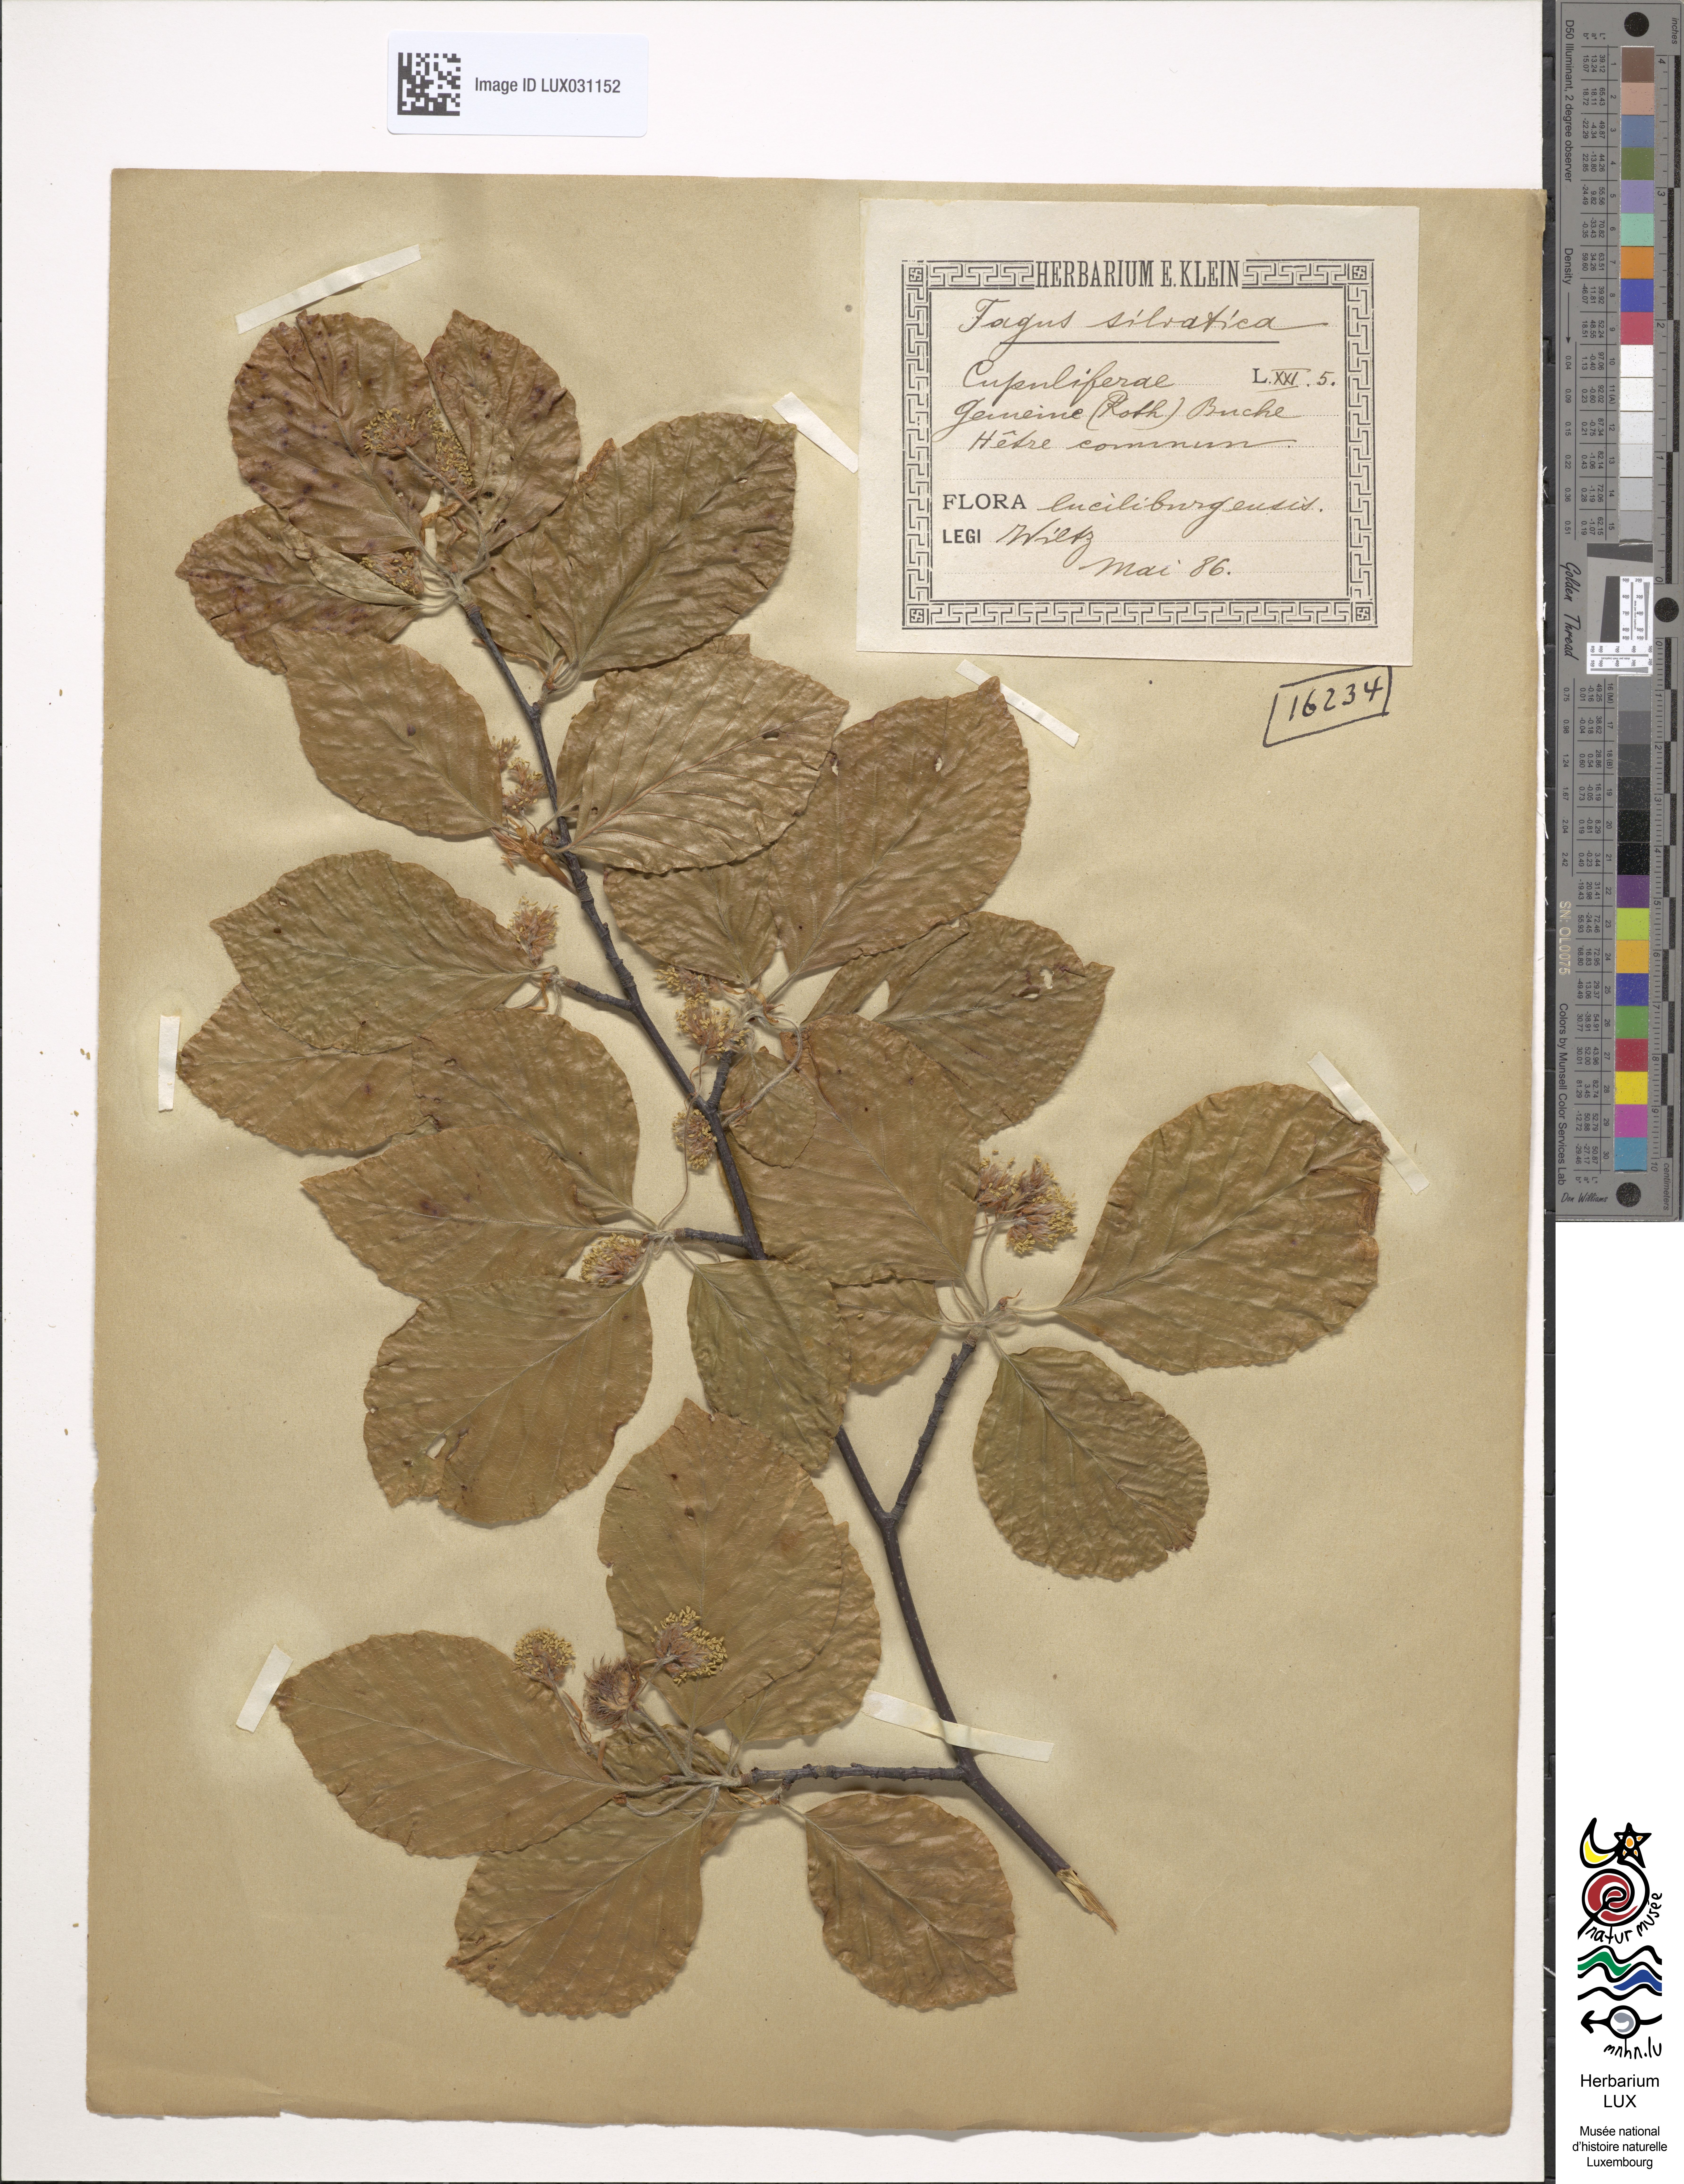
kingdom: Plantae
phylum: Tracheophyta
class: Magnoliopsida
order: Fagales
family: Fagaceae
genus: Fagus
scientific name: Fagus sylvatica
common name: Beech
